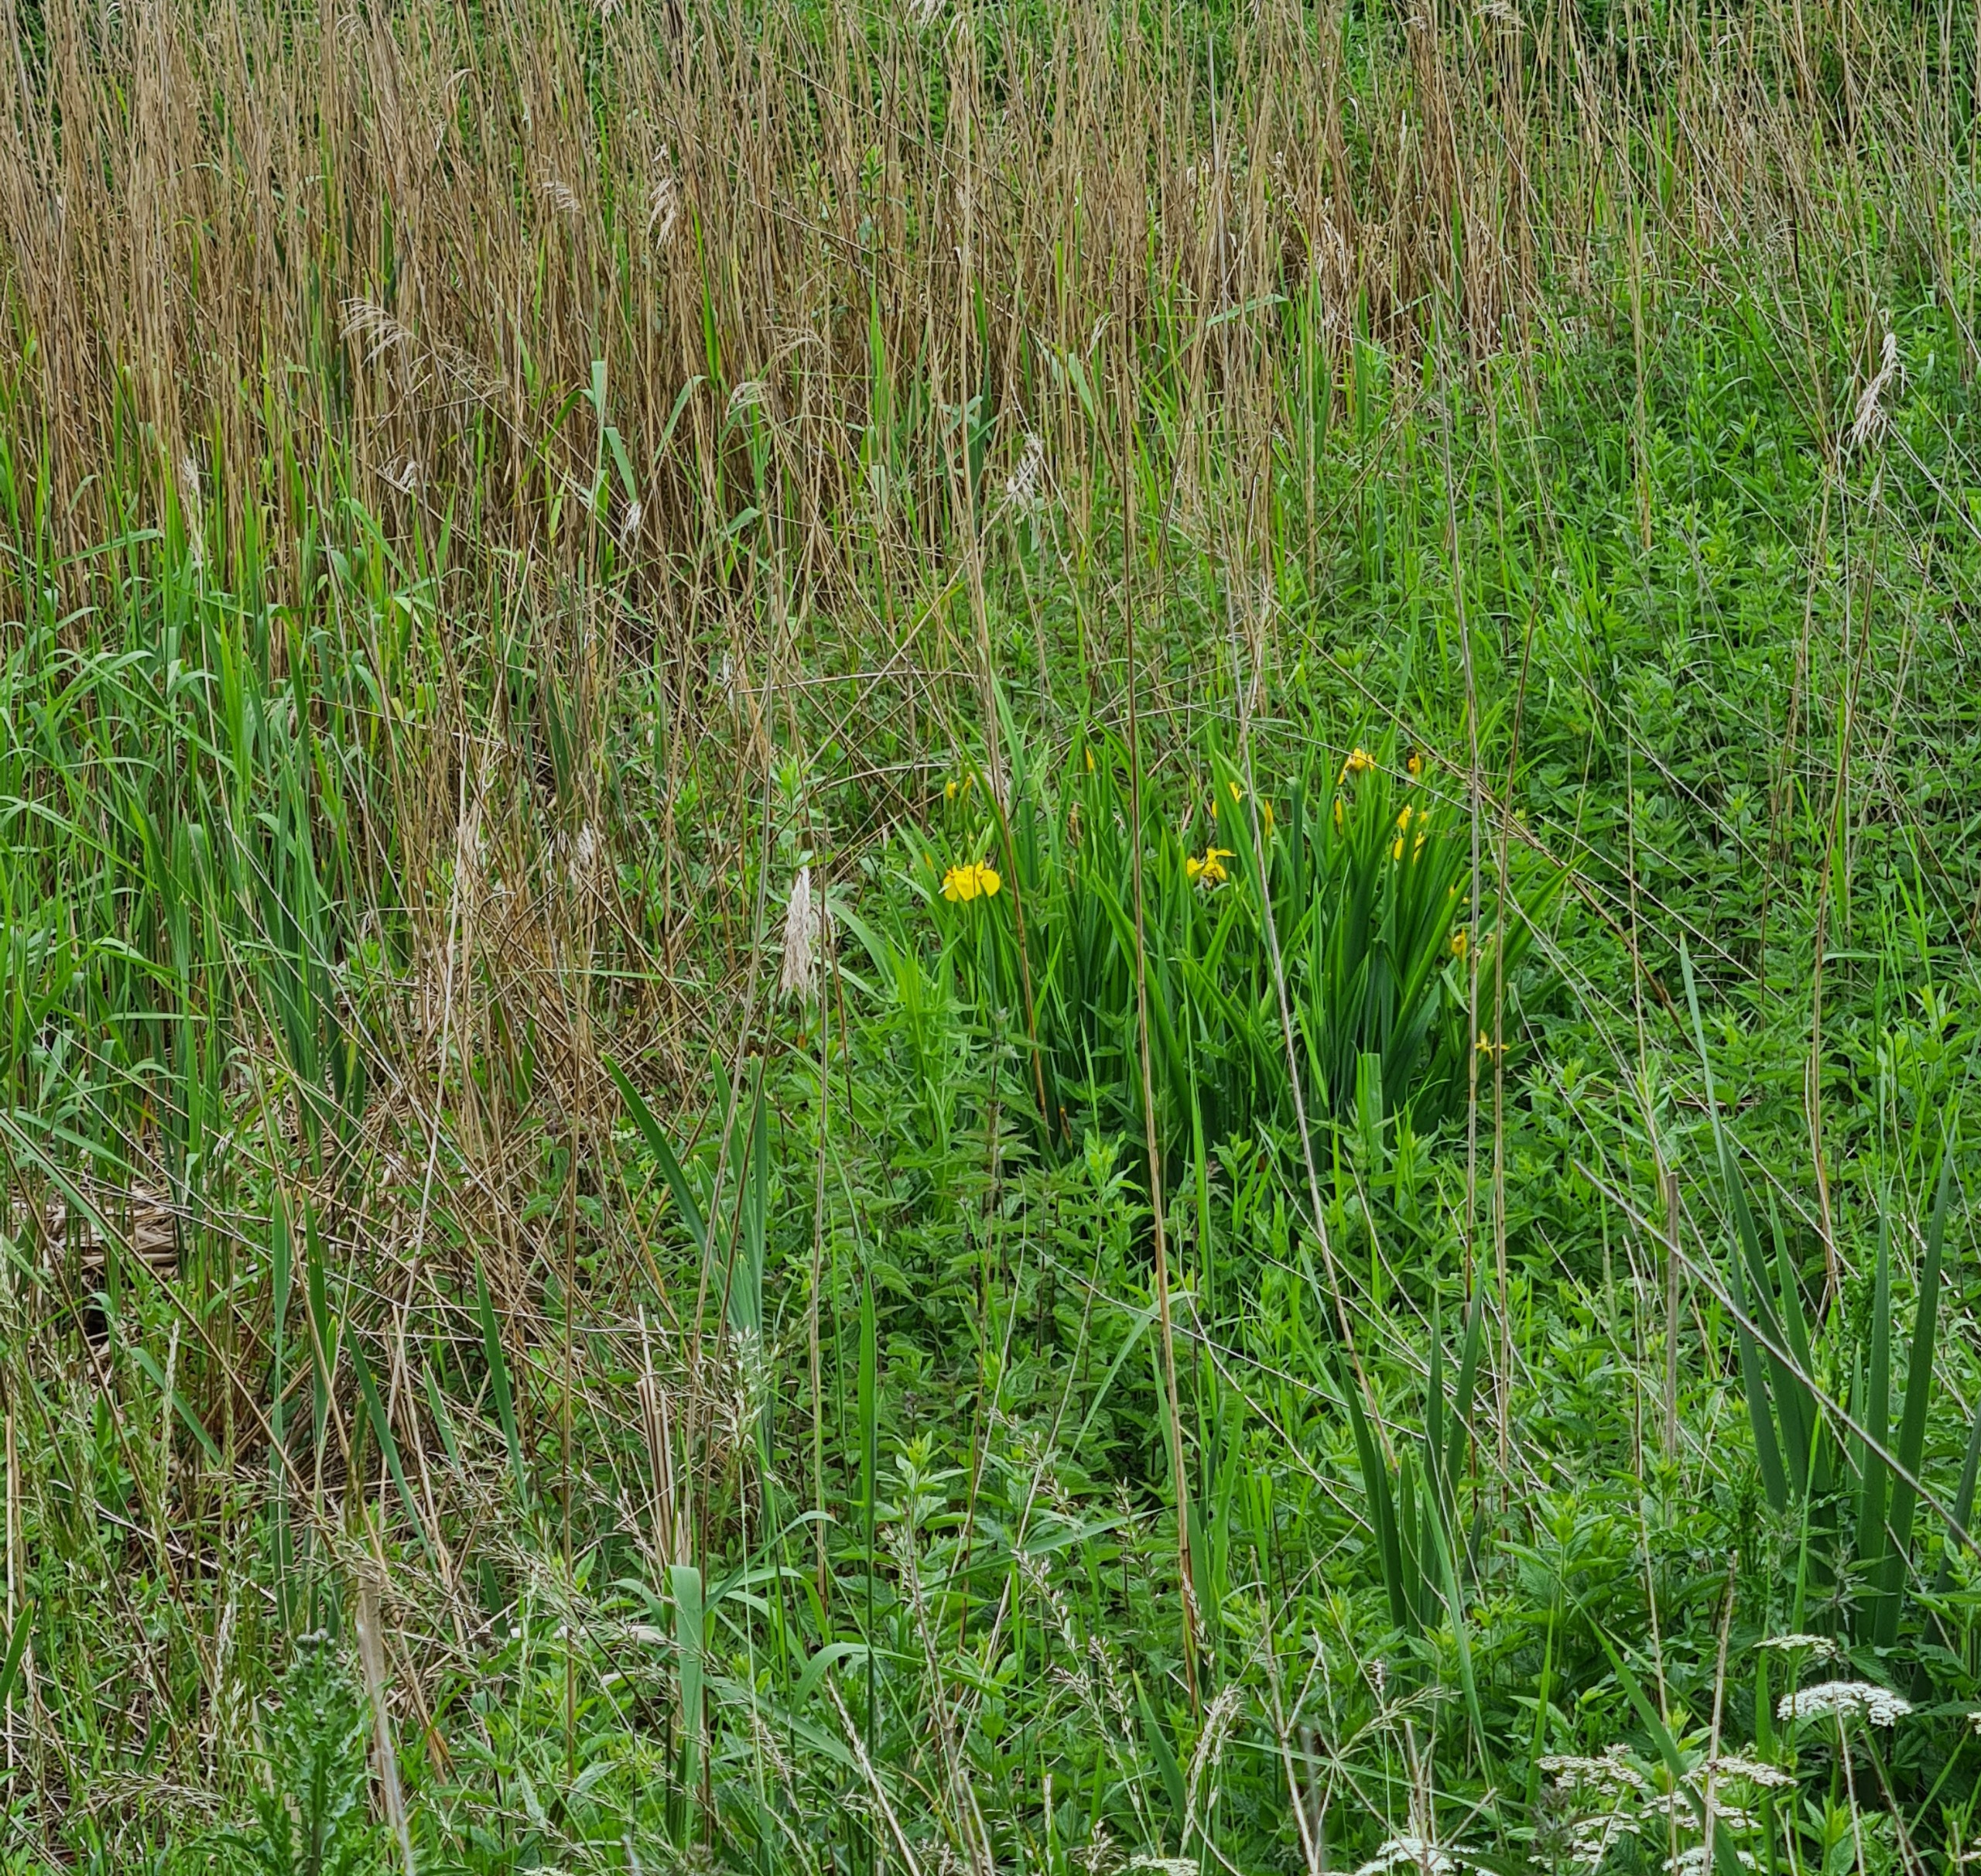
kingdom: Plantae
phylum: Tracheophyta
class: Liliopsida
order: Asparagales
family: Iridaceae
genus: Iris
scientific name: Iris pseudacorus
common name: Gul iris
